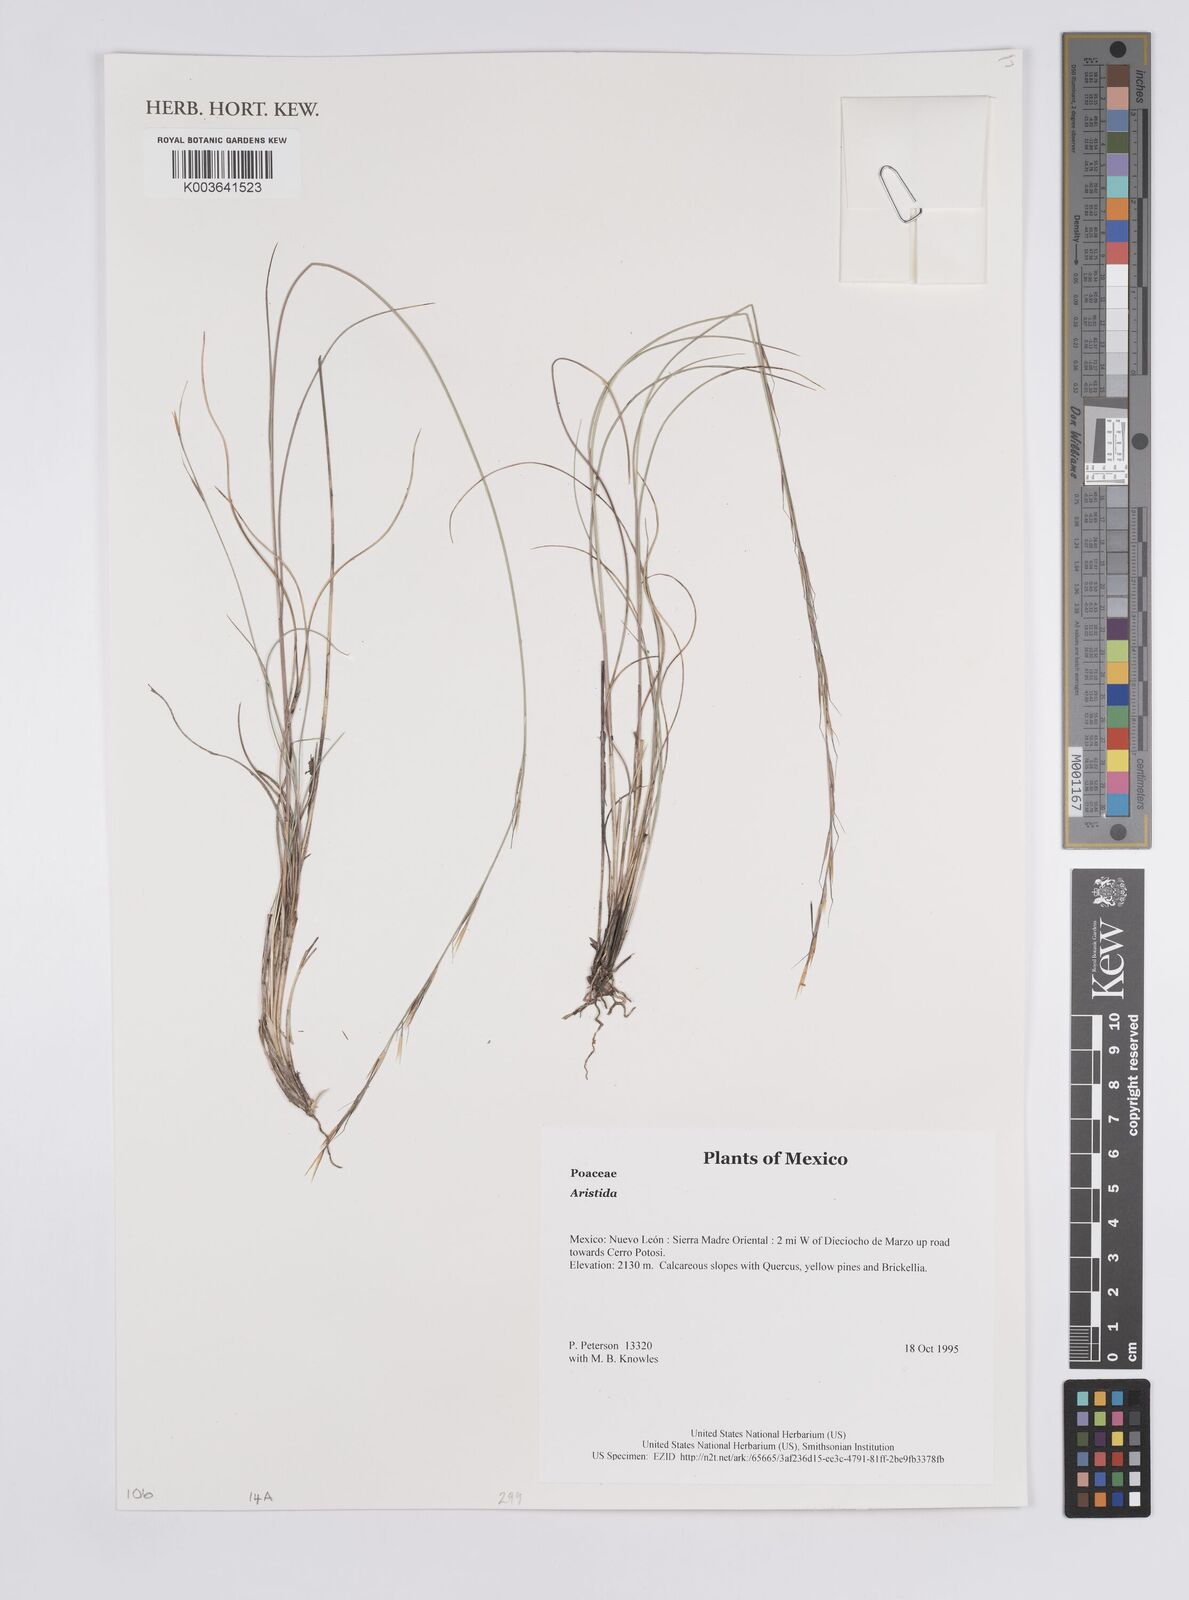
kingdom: Plantae
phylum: Tracheophyta
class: Liliopsida
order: Poales
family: Poaceae
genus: Aristida
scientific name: Aristida
